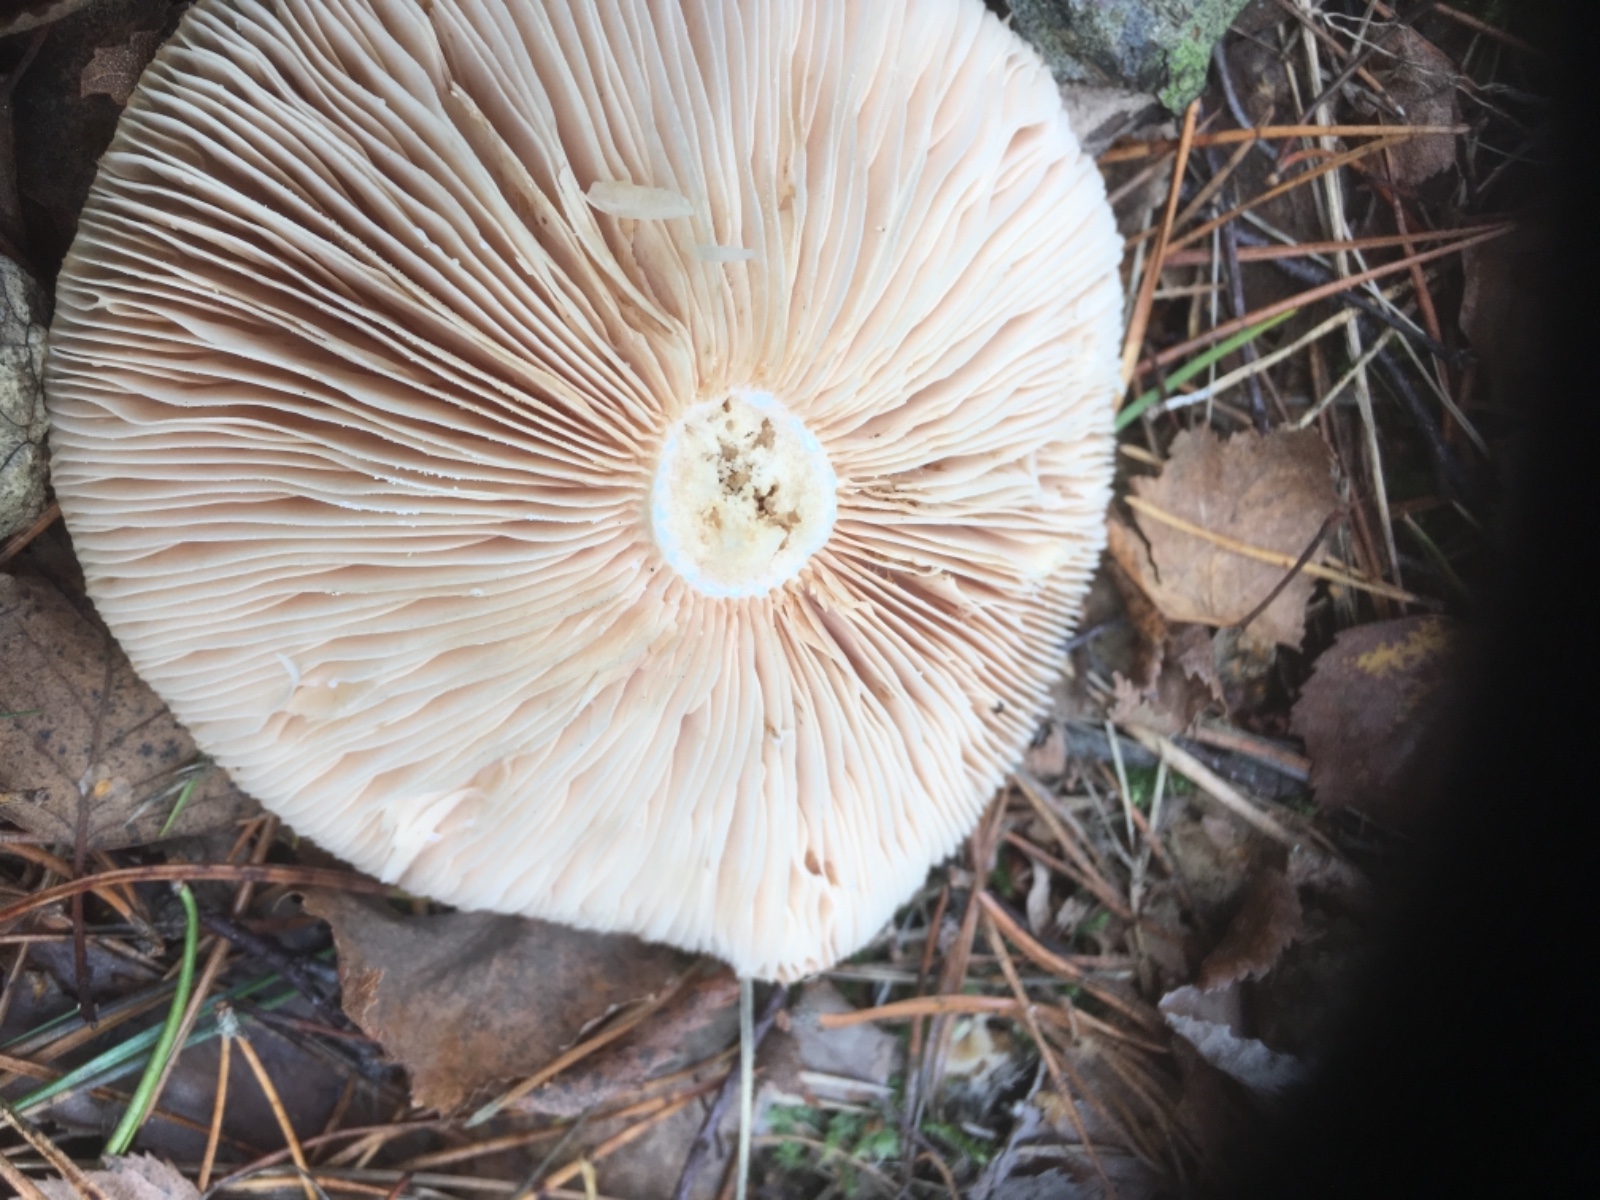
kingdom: Fungi
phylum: Basidiomycota
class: Agaricomycetes
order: Russulales
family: Russulaceae
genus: Lactarius
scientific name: Lactarius pubescens
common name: dunet mælkehat
